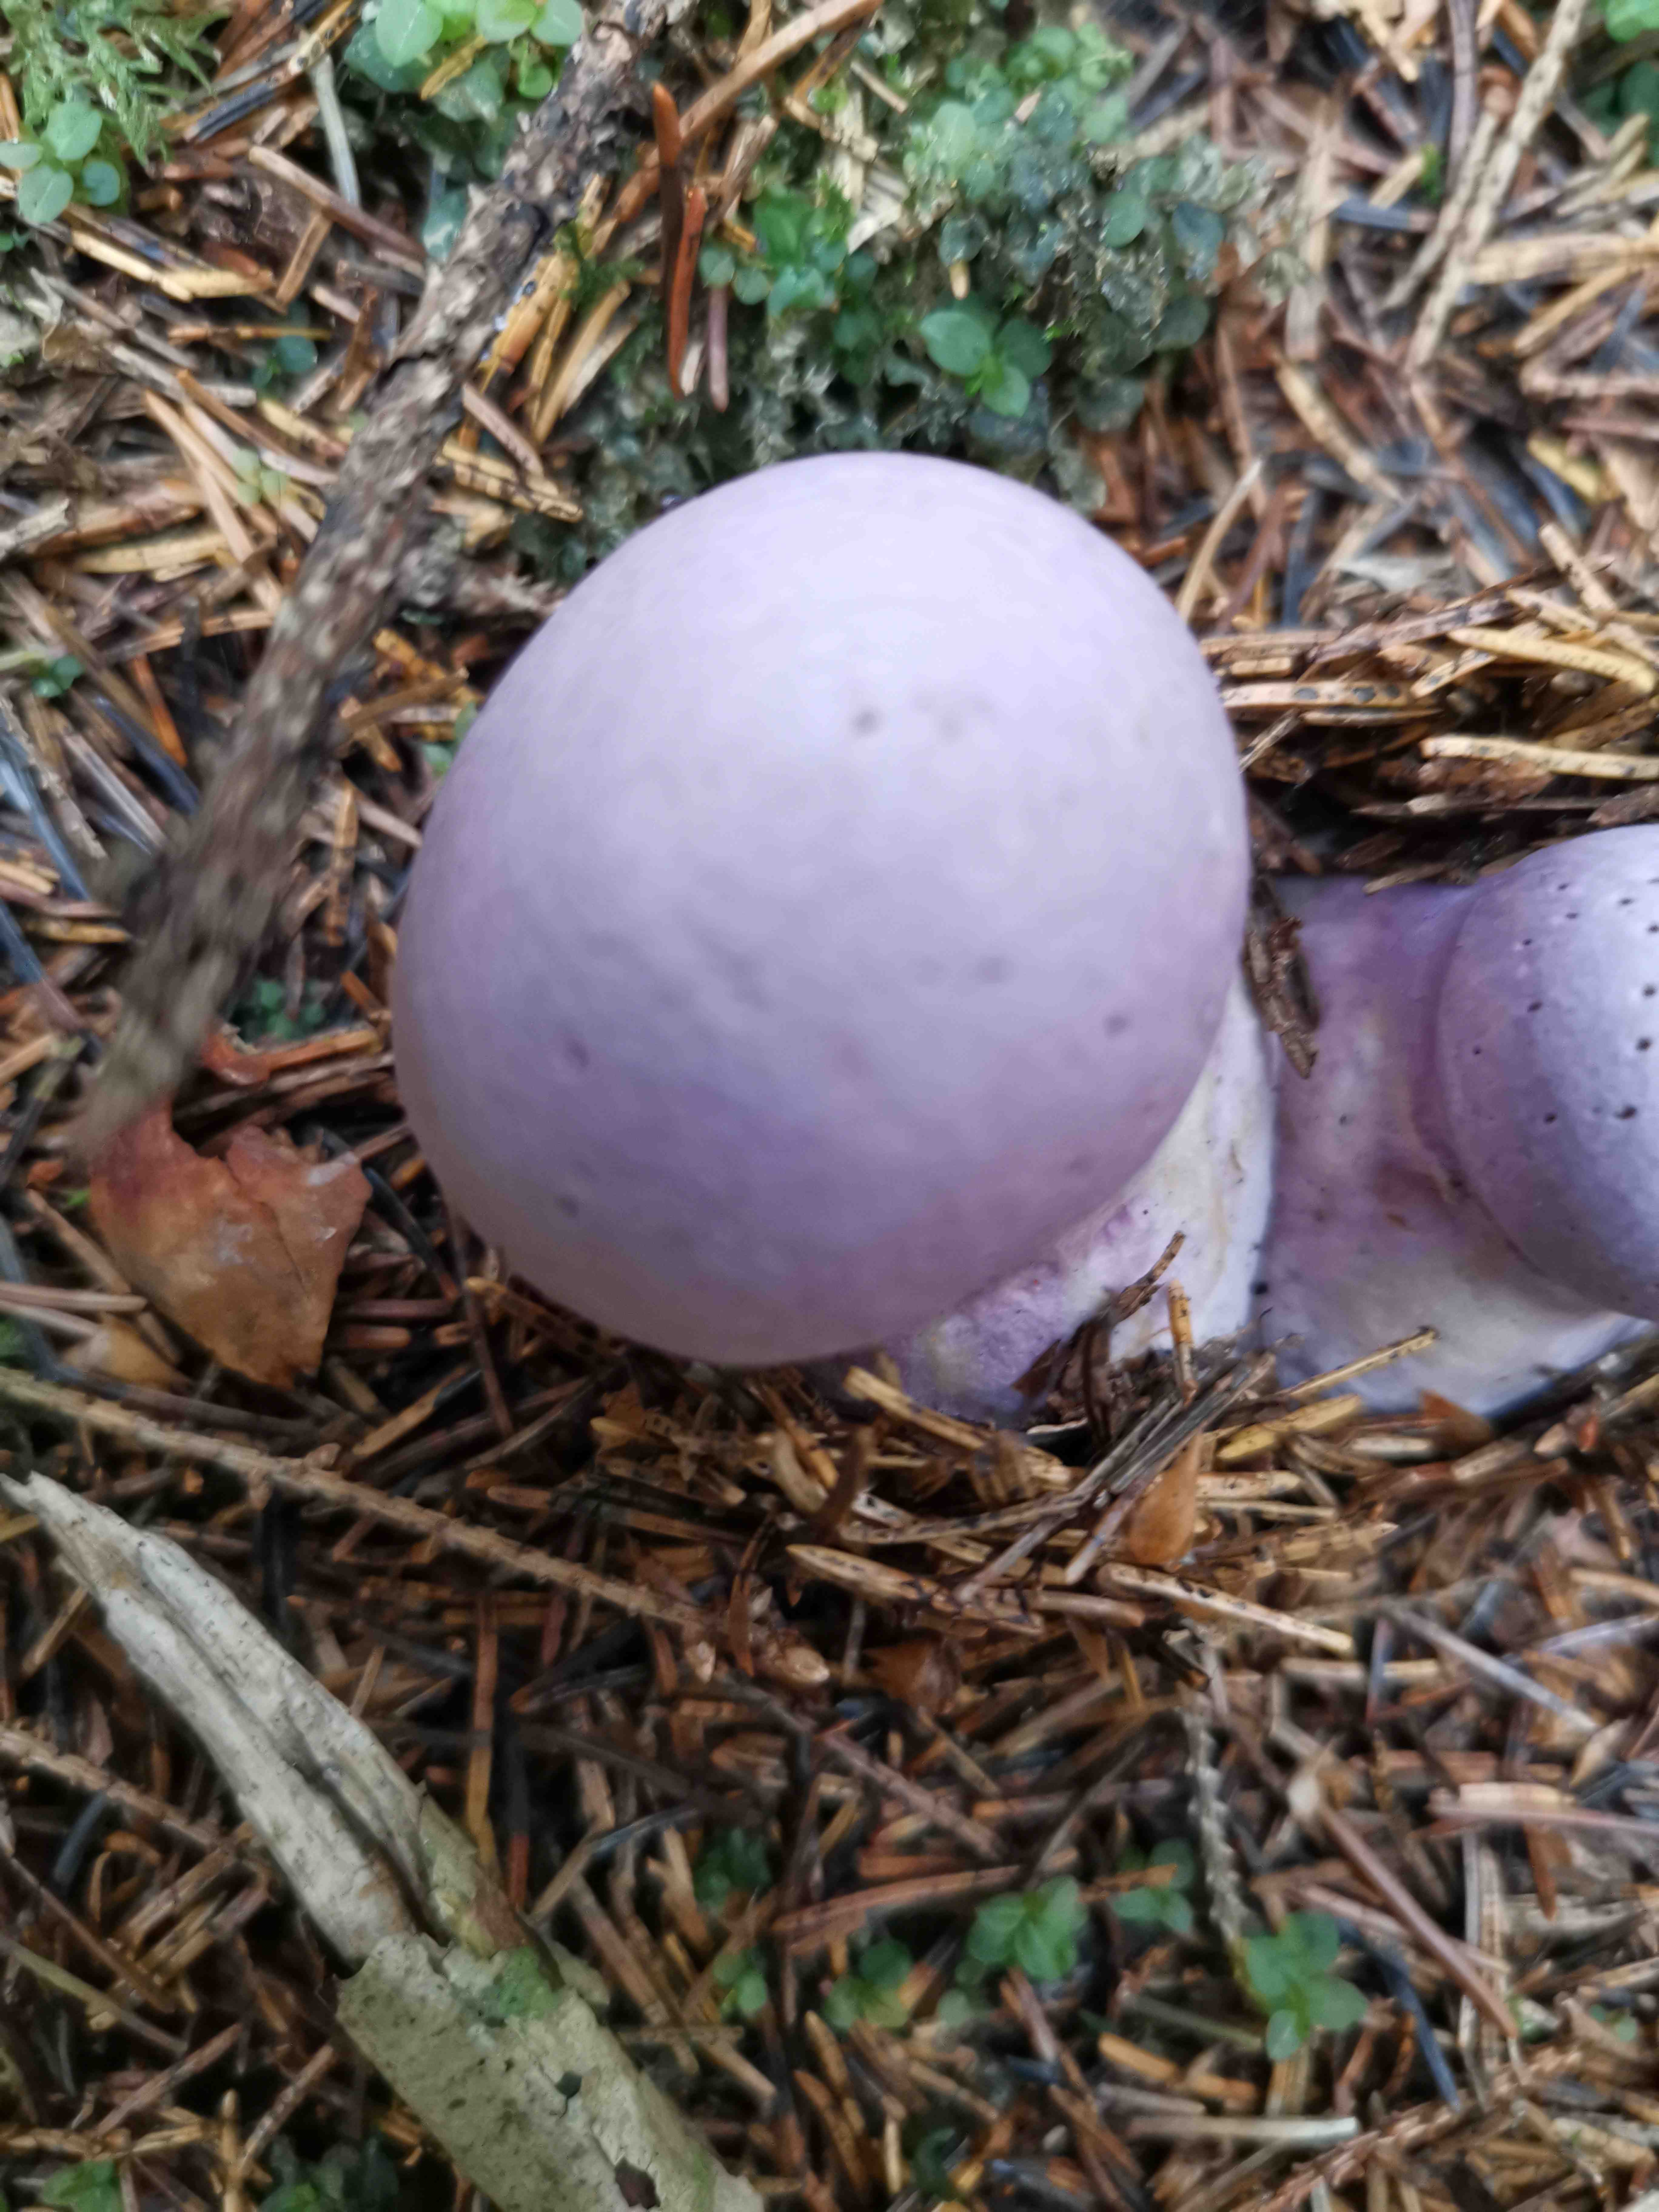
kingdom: Fungi
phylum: Basidiomycota
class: Agaricomycetes
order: Agaricales
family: Cortinariaceae
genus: Cortinarius
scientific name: Cortinarius
